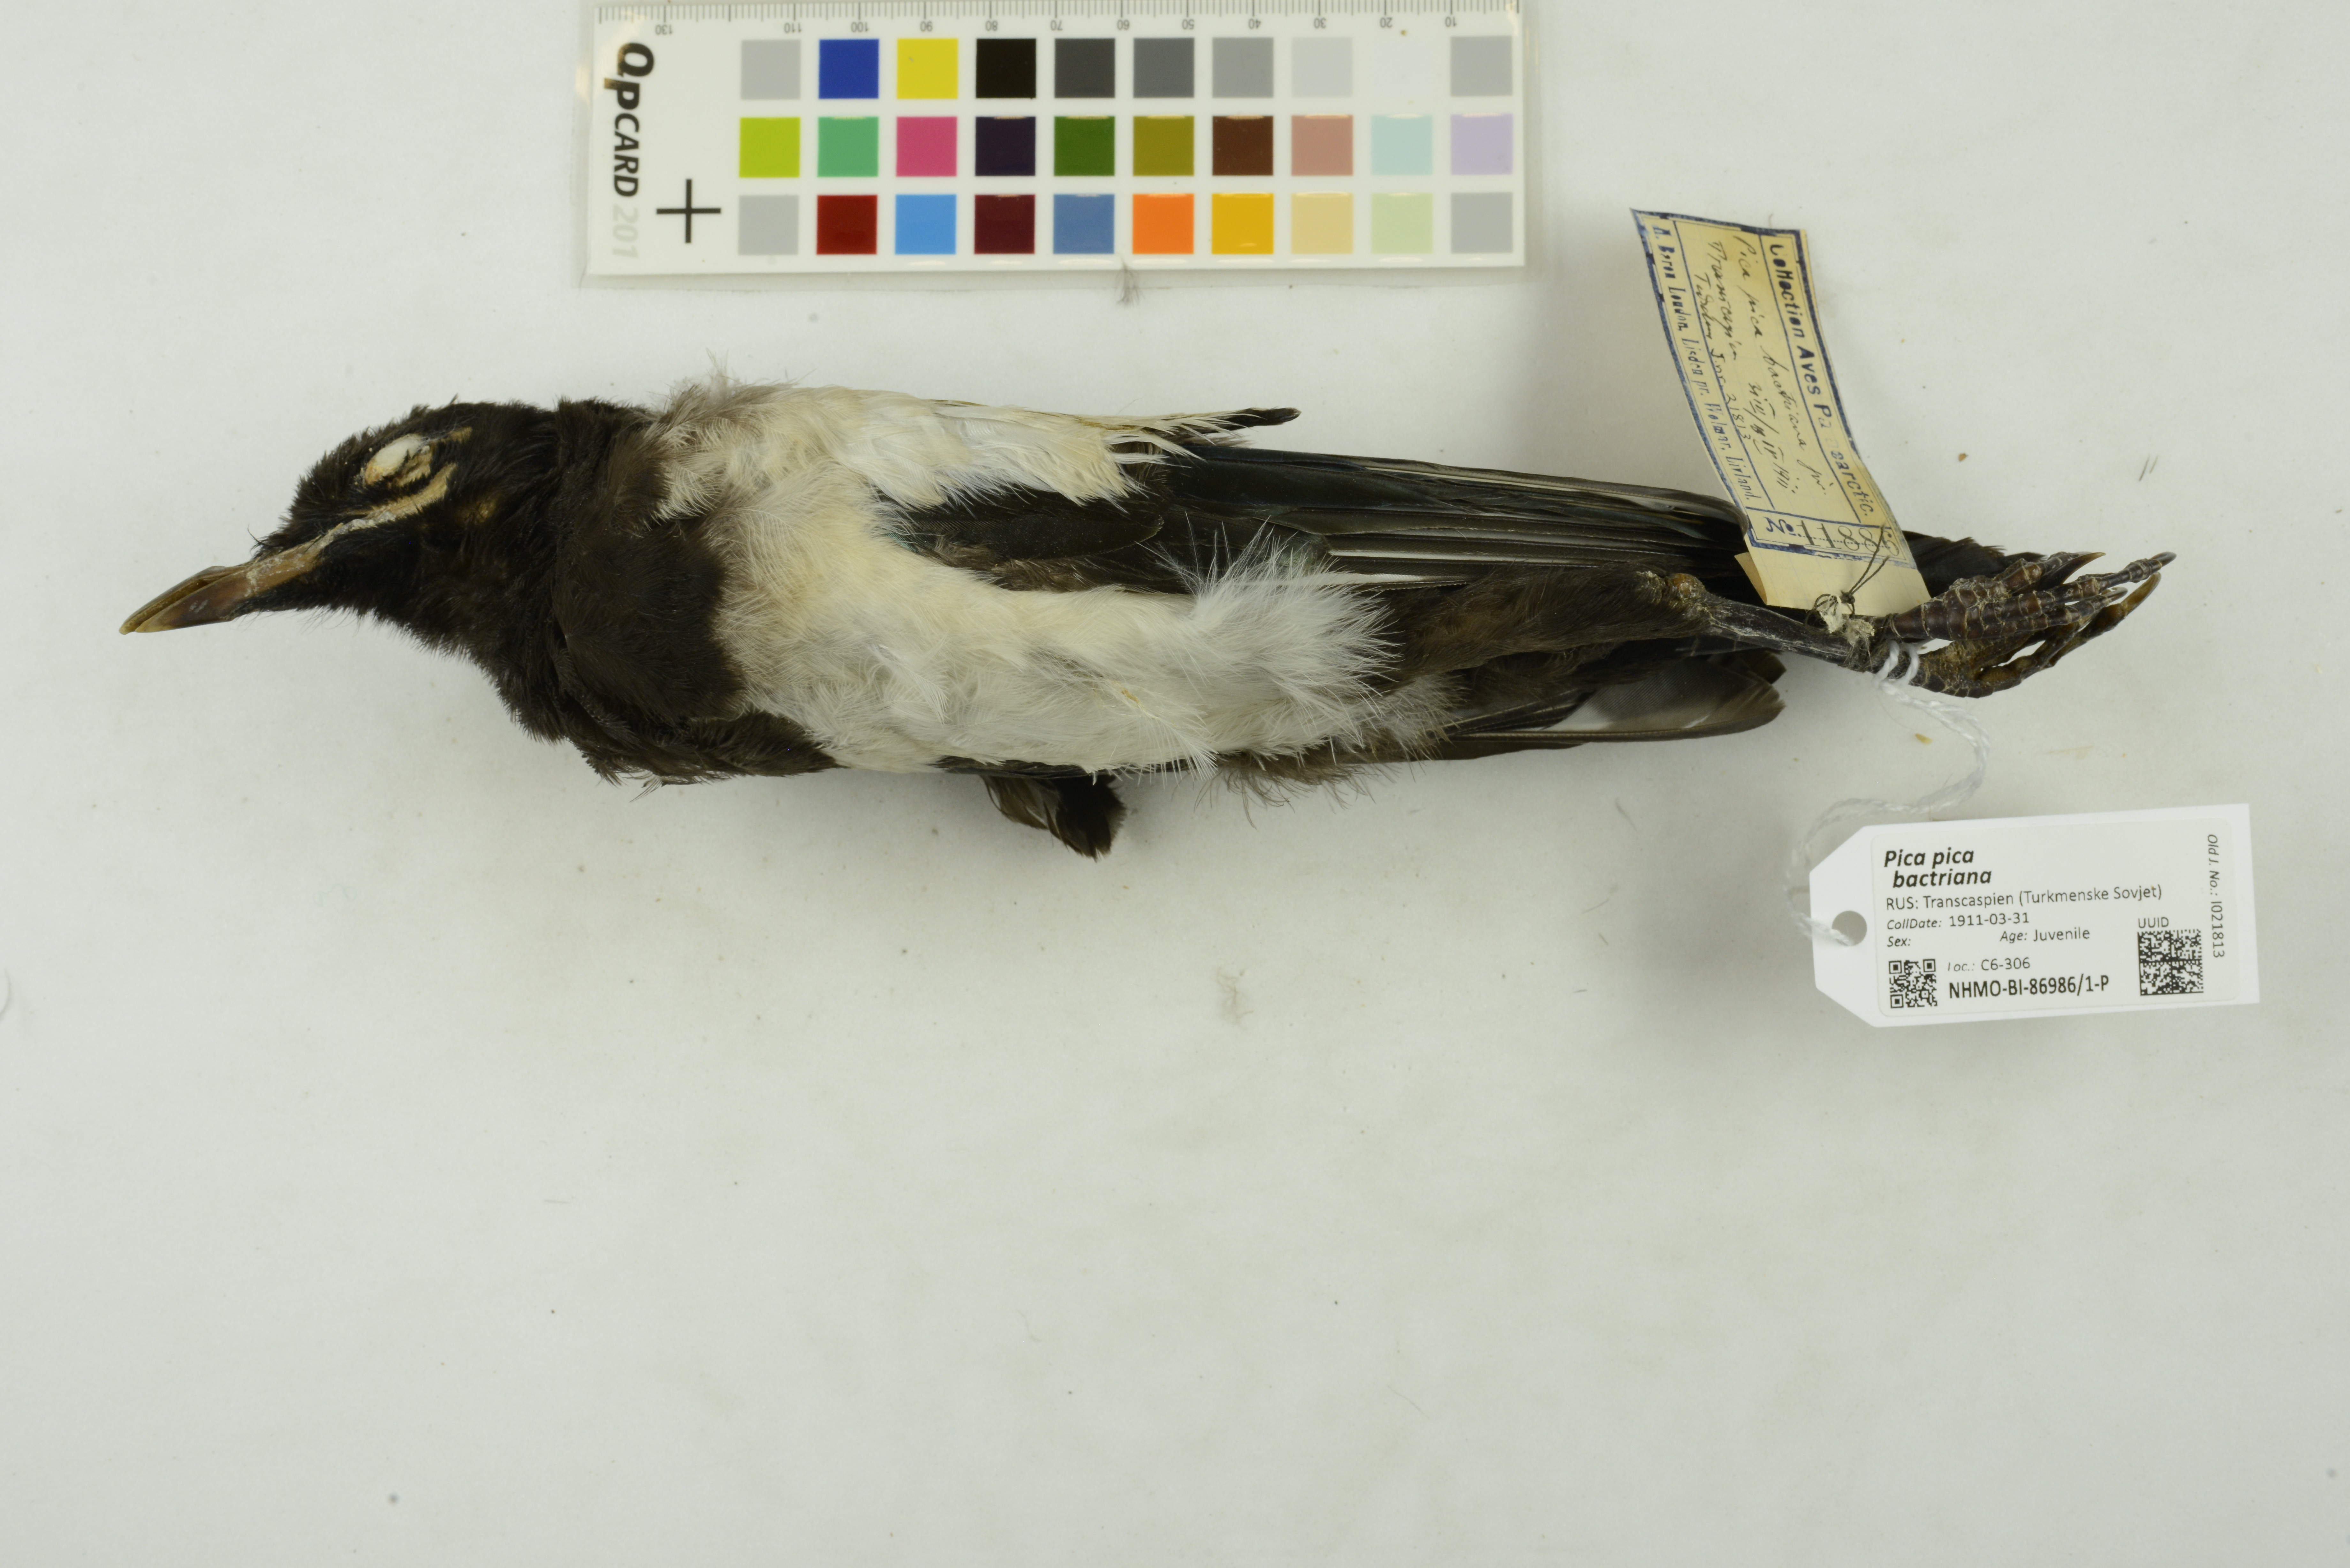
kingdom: Animalia
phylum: Chordata
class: Aves
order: Passeriformes
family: Corvidae
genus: Pica
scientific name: Pica pica
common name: Eurasian magpie
